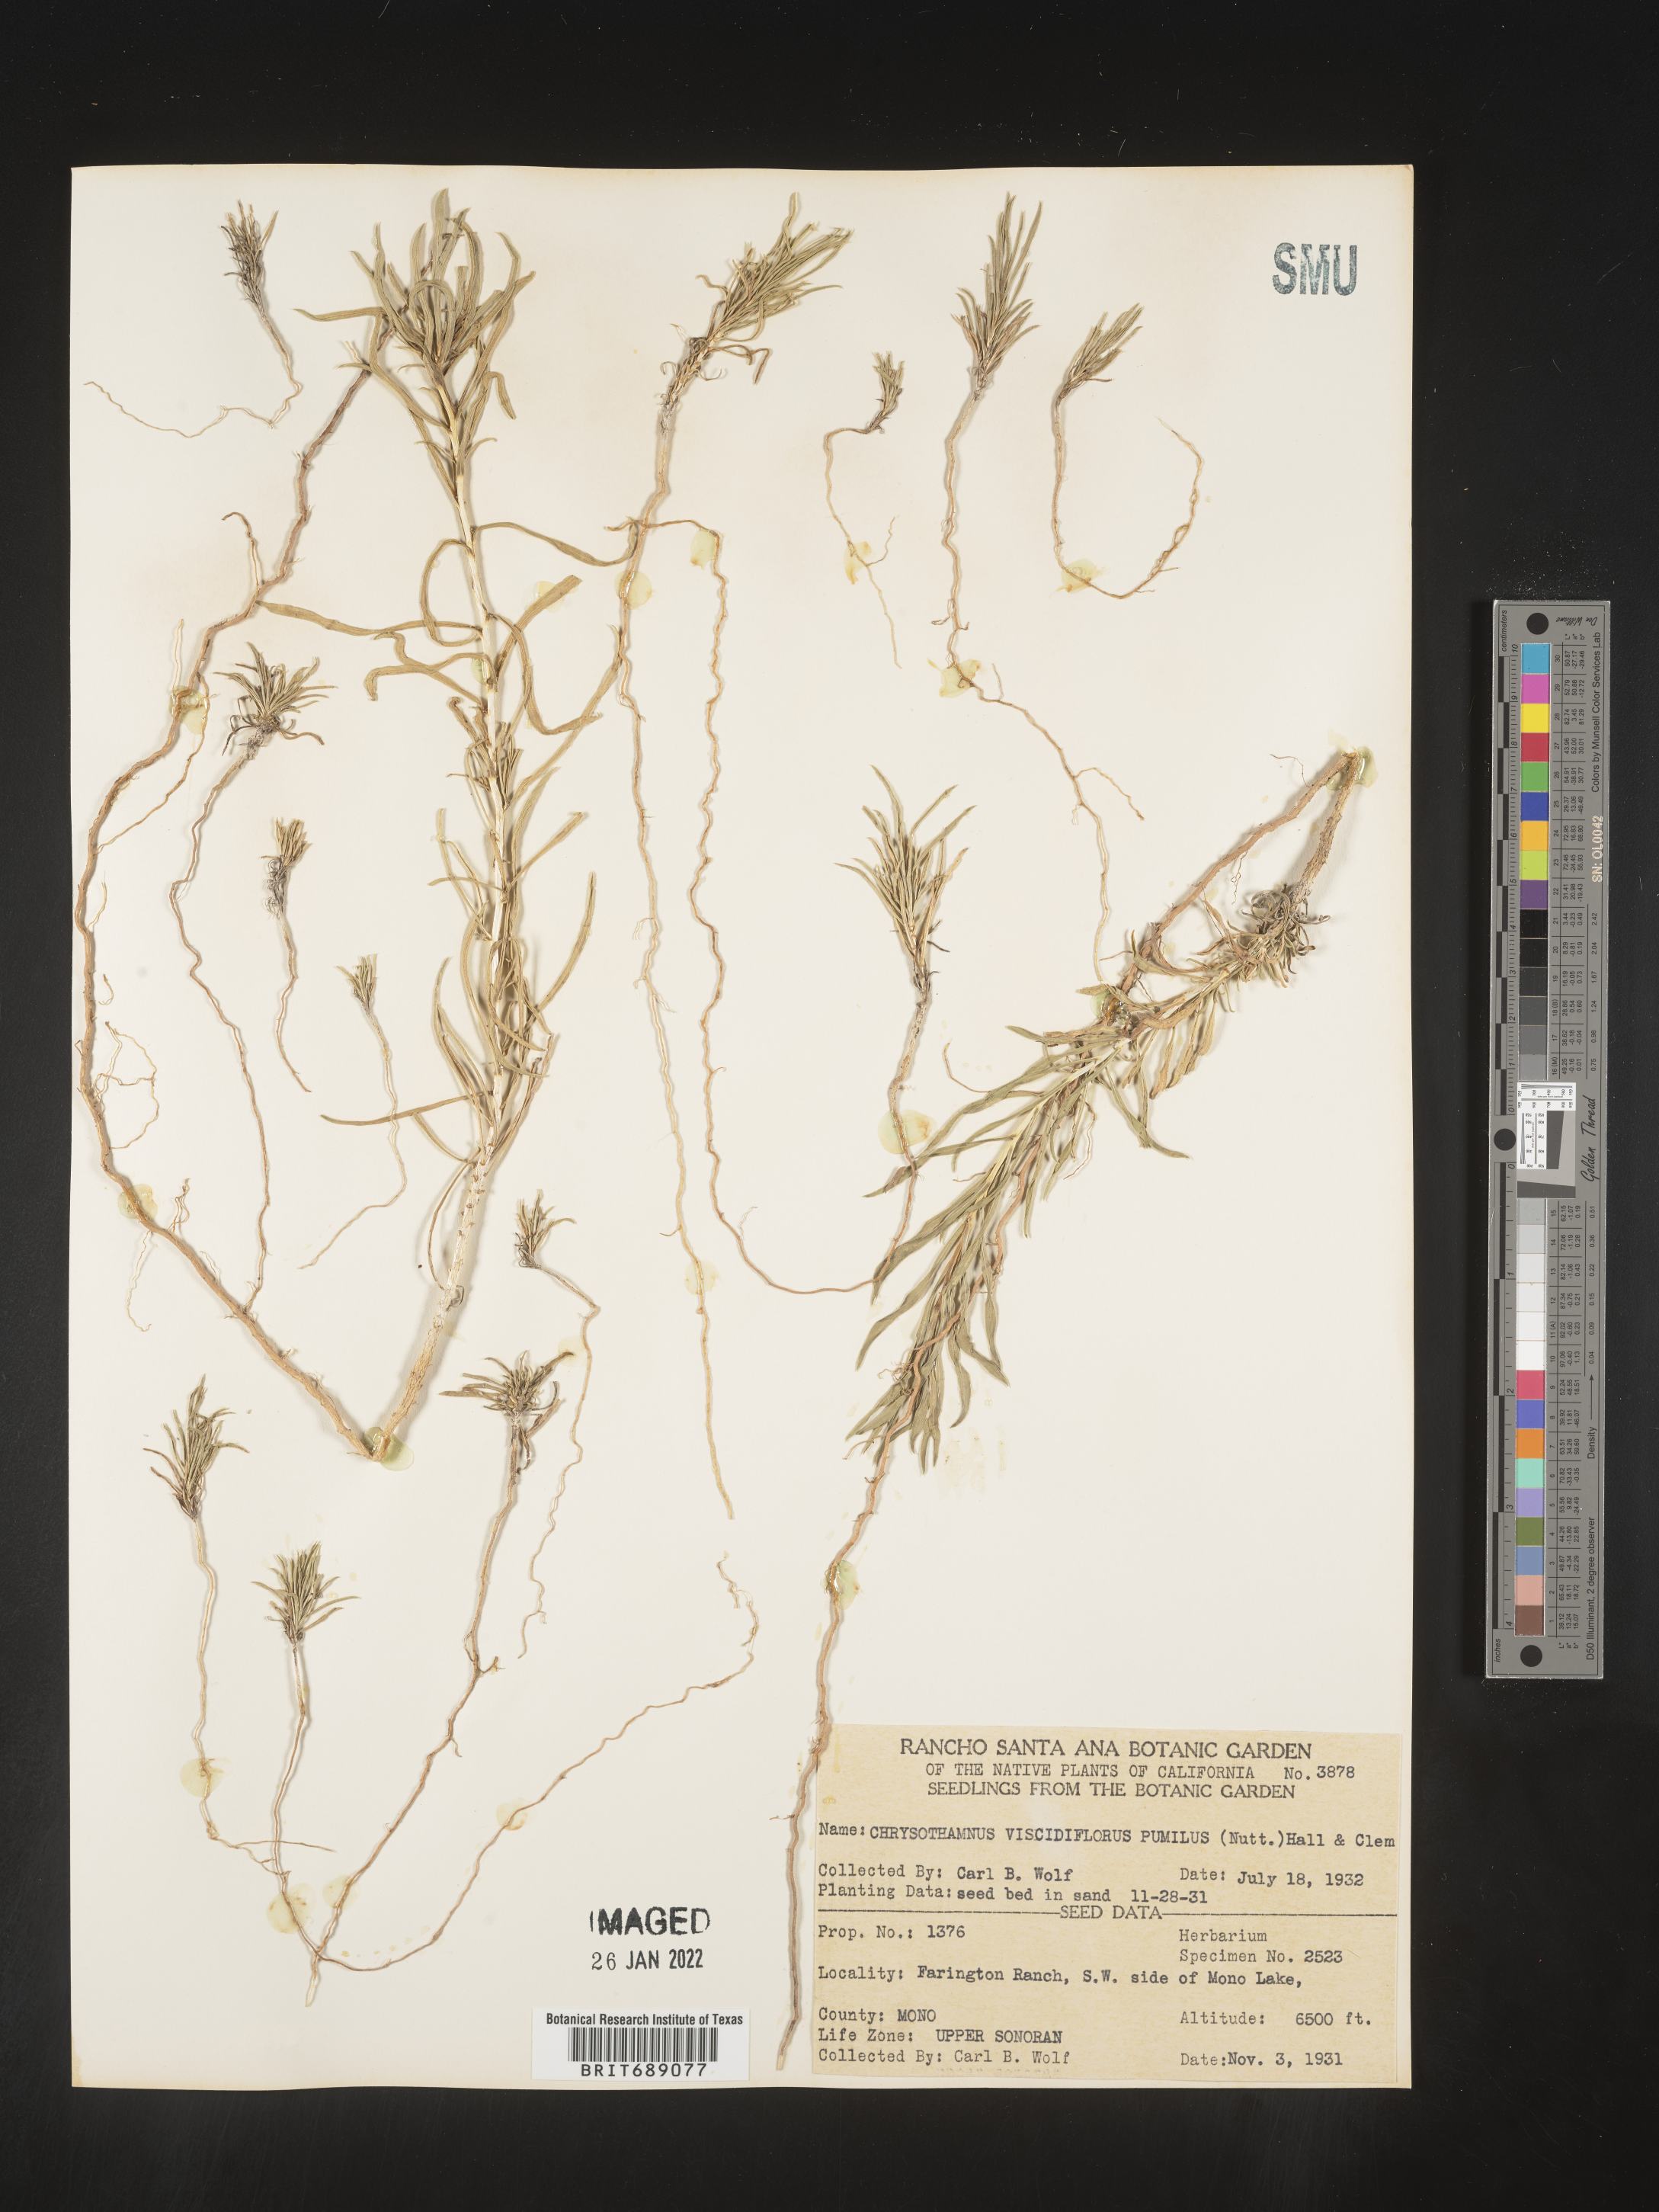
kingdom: Plantae
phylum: Tracheophyta
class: Magnoliopsida
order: Asterales
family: Asteraceae
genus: Chrysothamnus
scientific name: Chrysothamnus viscidiflorus
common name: Yellow rabbitbrush
